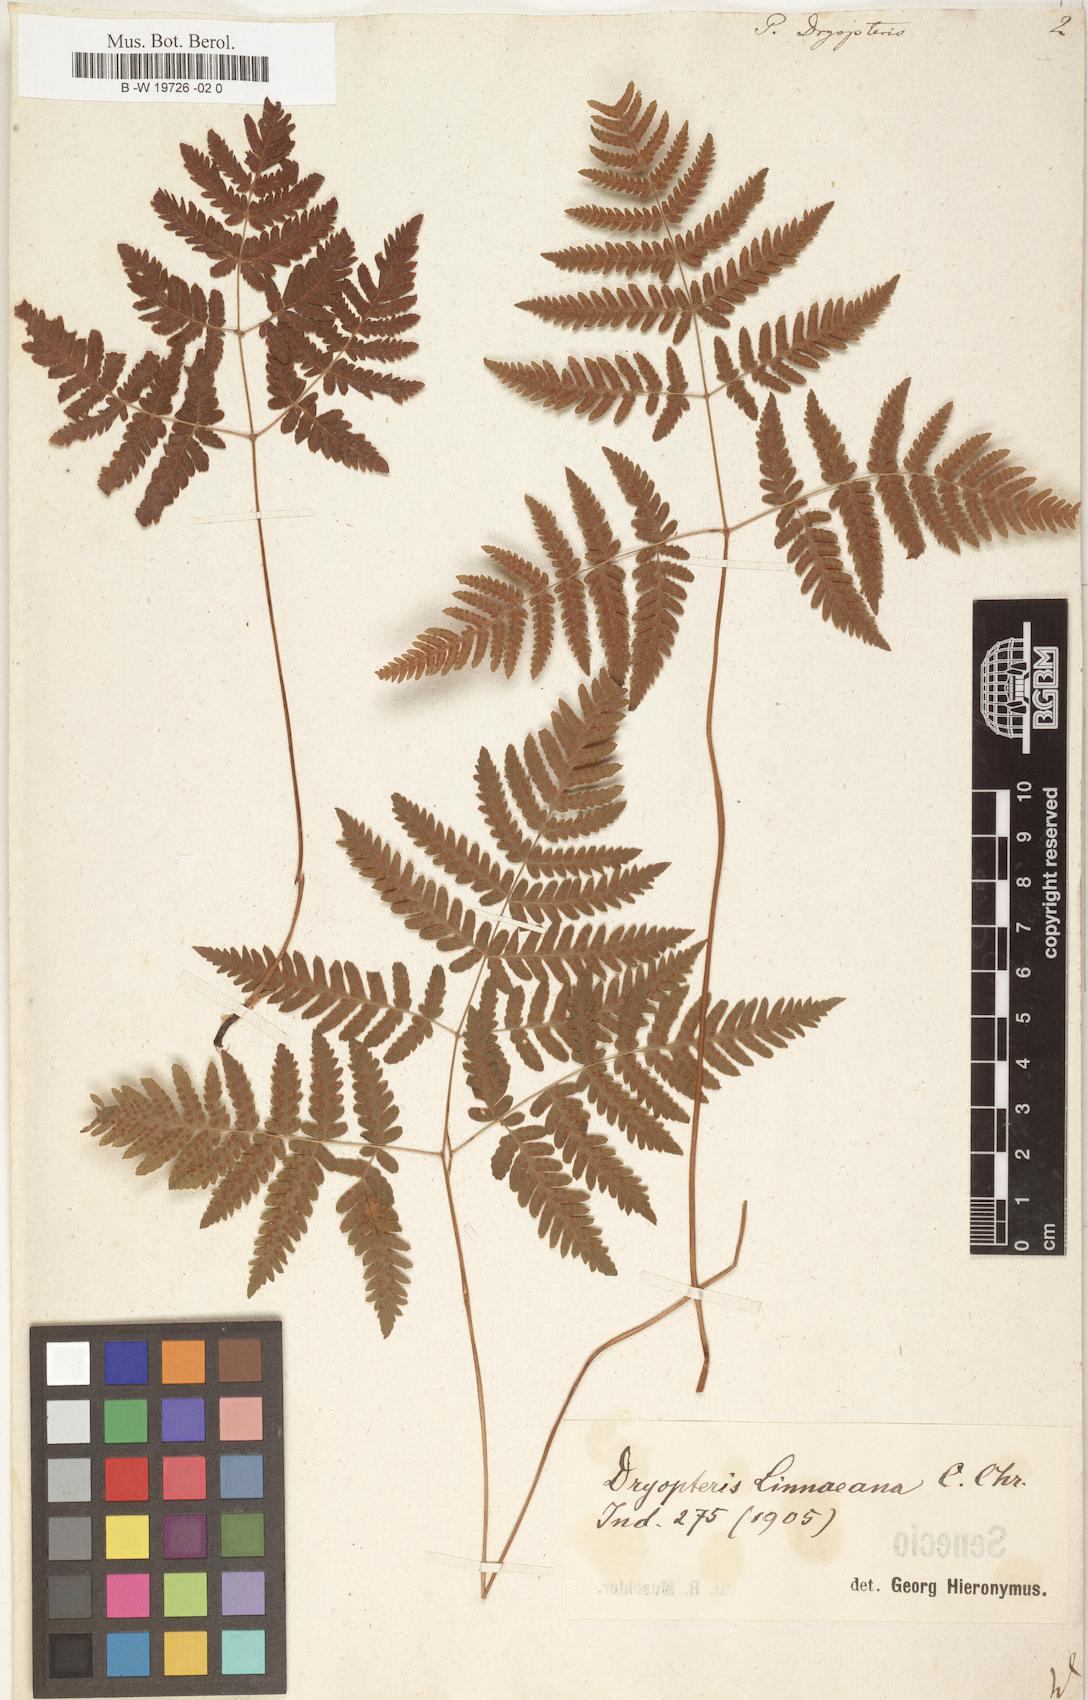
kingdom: Plantae
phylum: Tracheophyta
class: Polypodiopsida
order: Polypodiales
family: Cystopteridaceae
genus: Gymnocarpium
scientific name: Gymnocarpium dryopteris
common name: Oak fern
